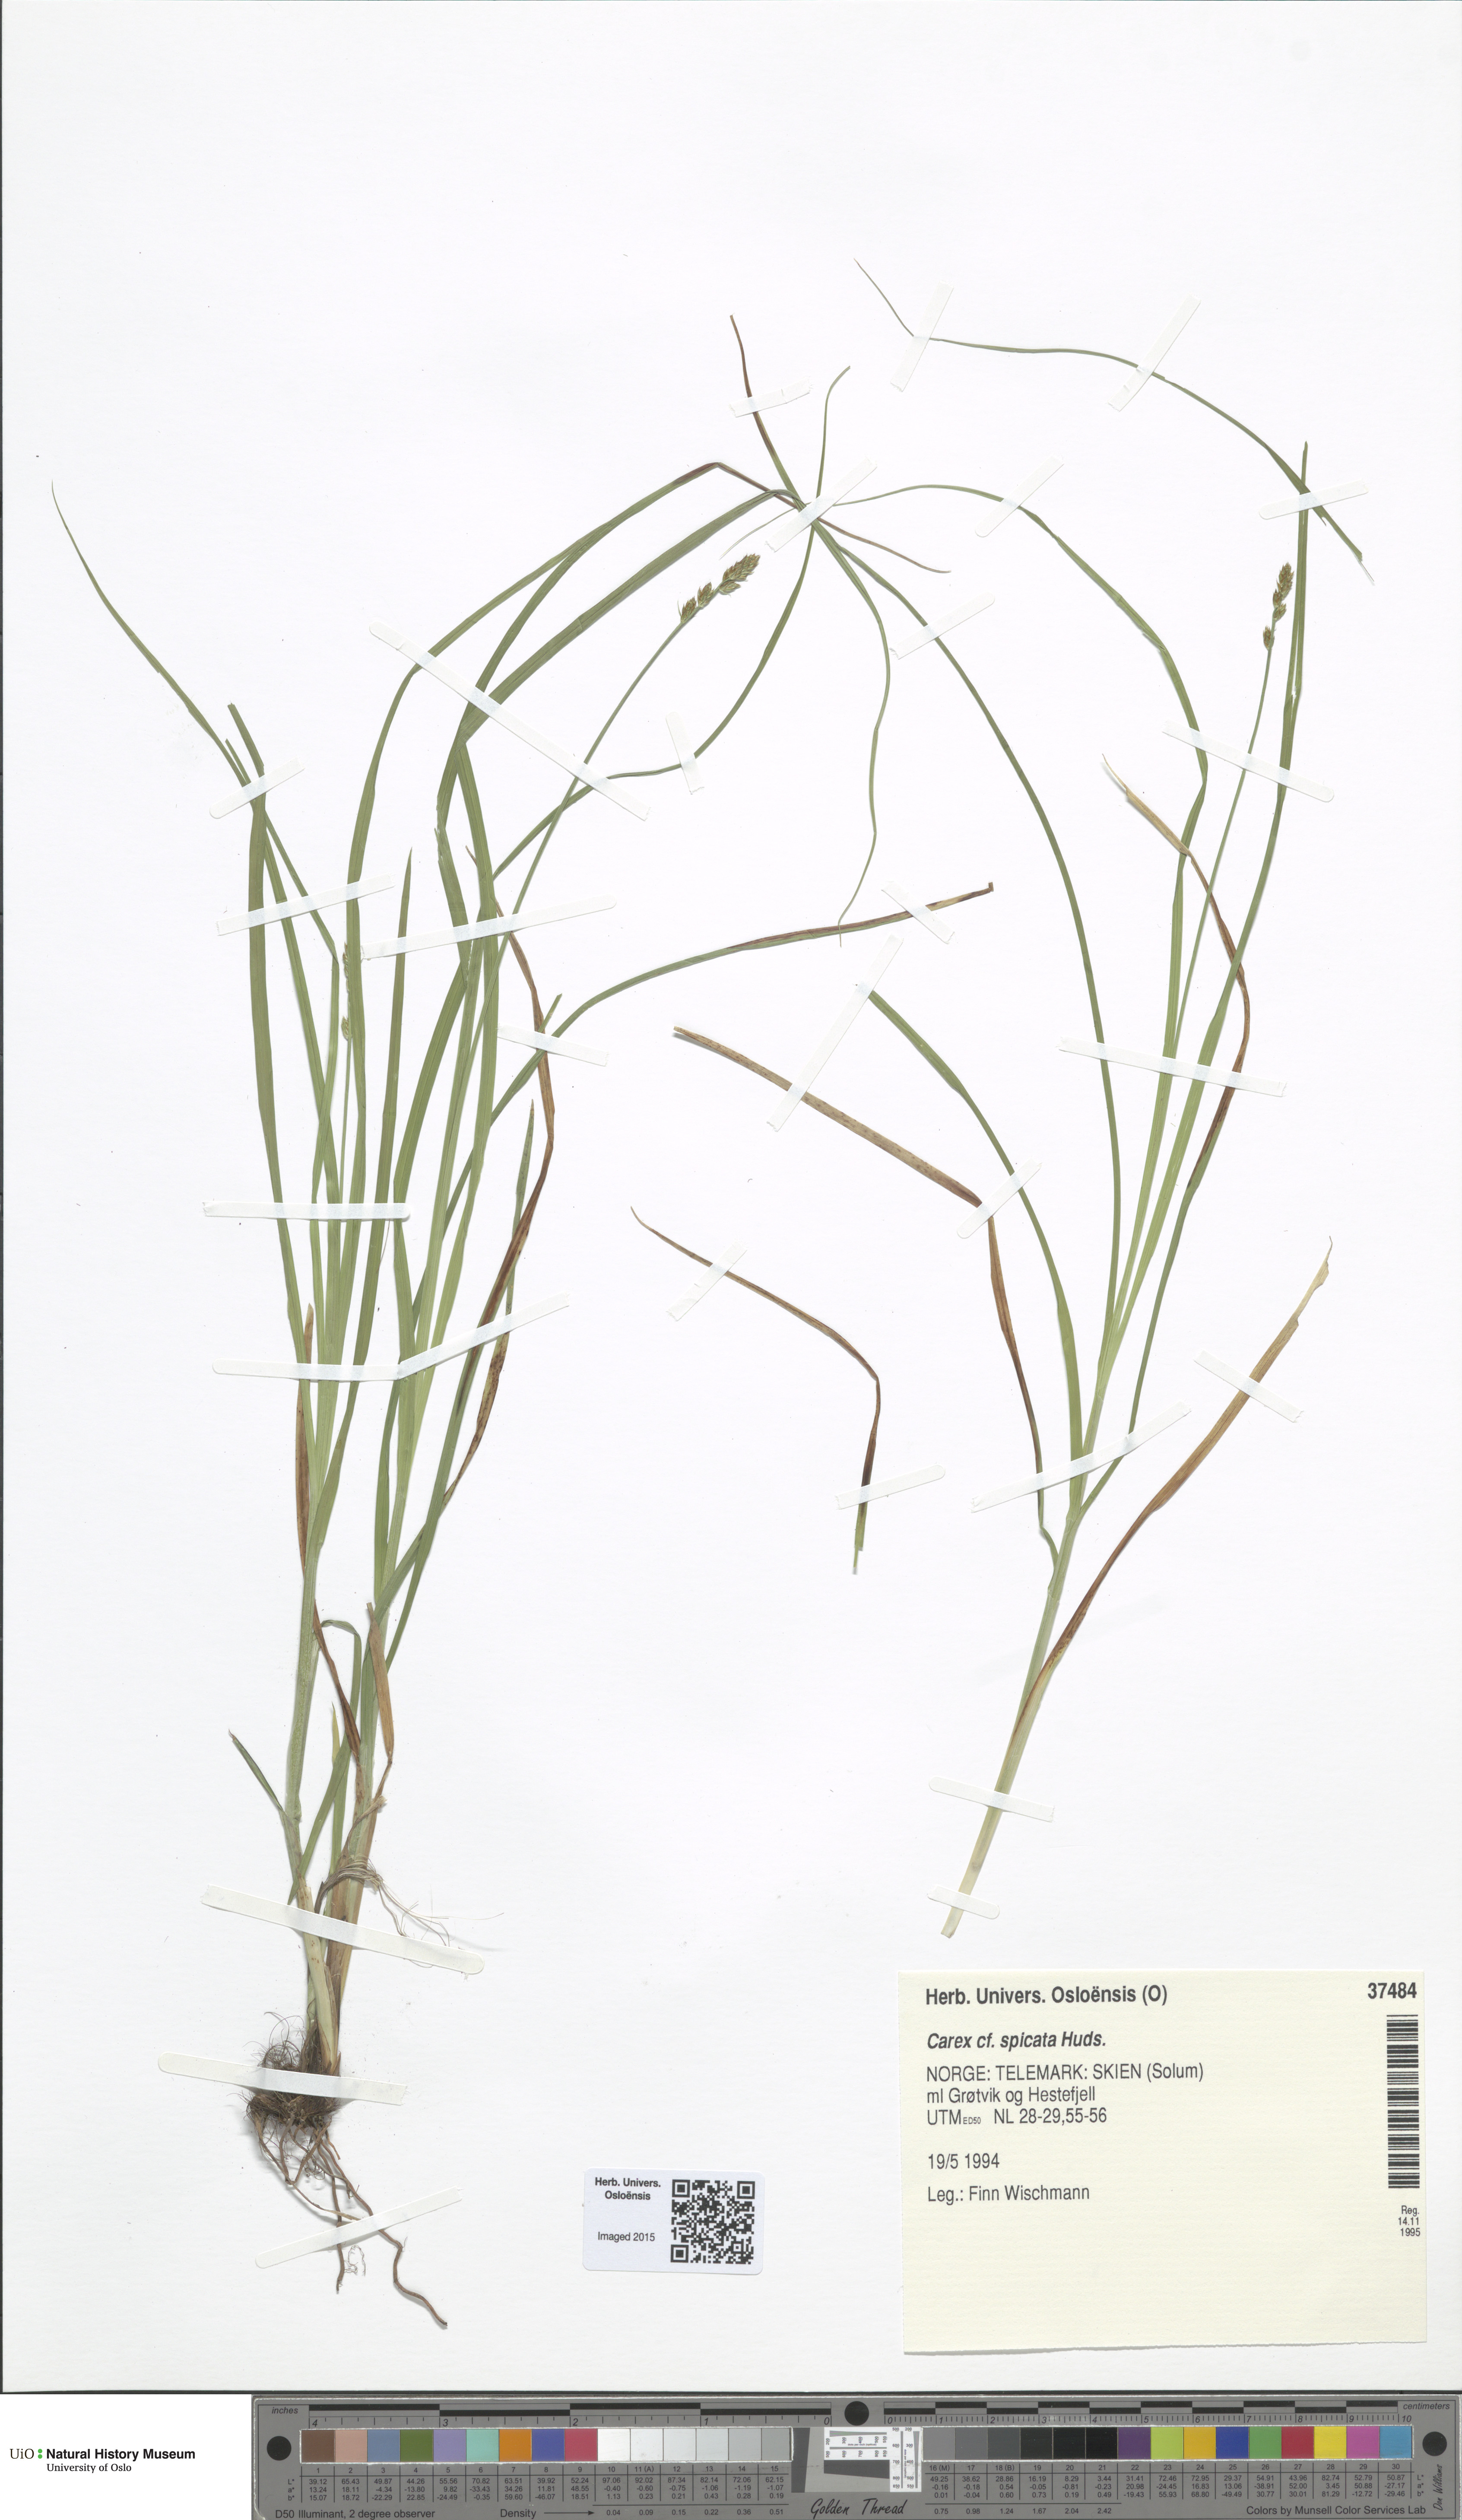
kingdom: Plantae
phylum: Tracheophyta
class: Liliopsida
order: Poales
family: Cyperaceae
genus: Carex
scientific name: Carex spicata
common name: Spiked sedge
